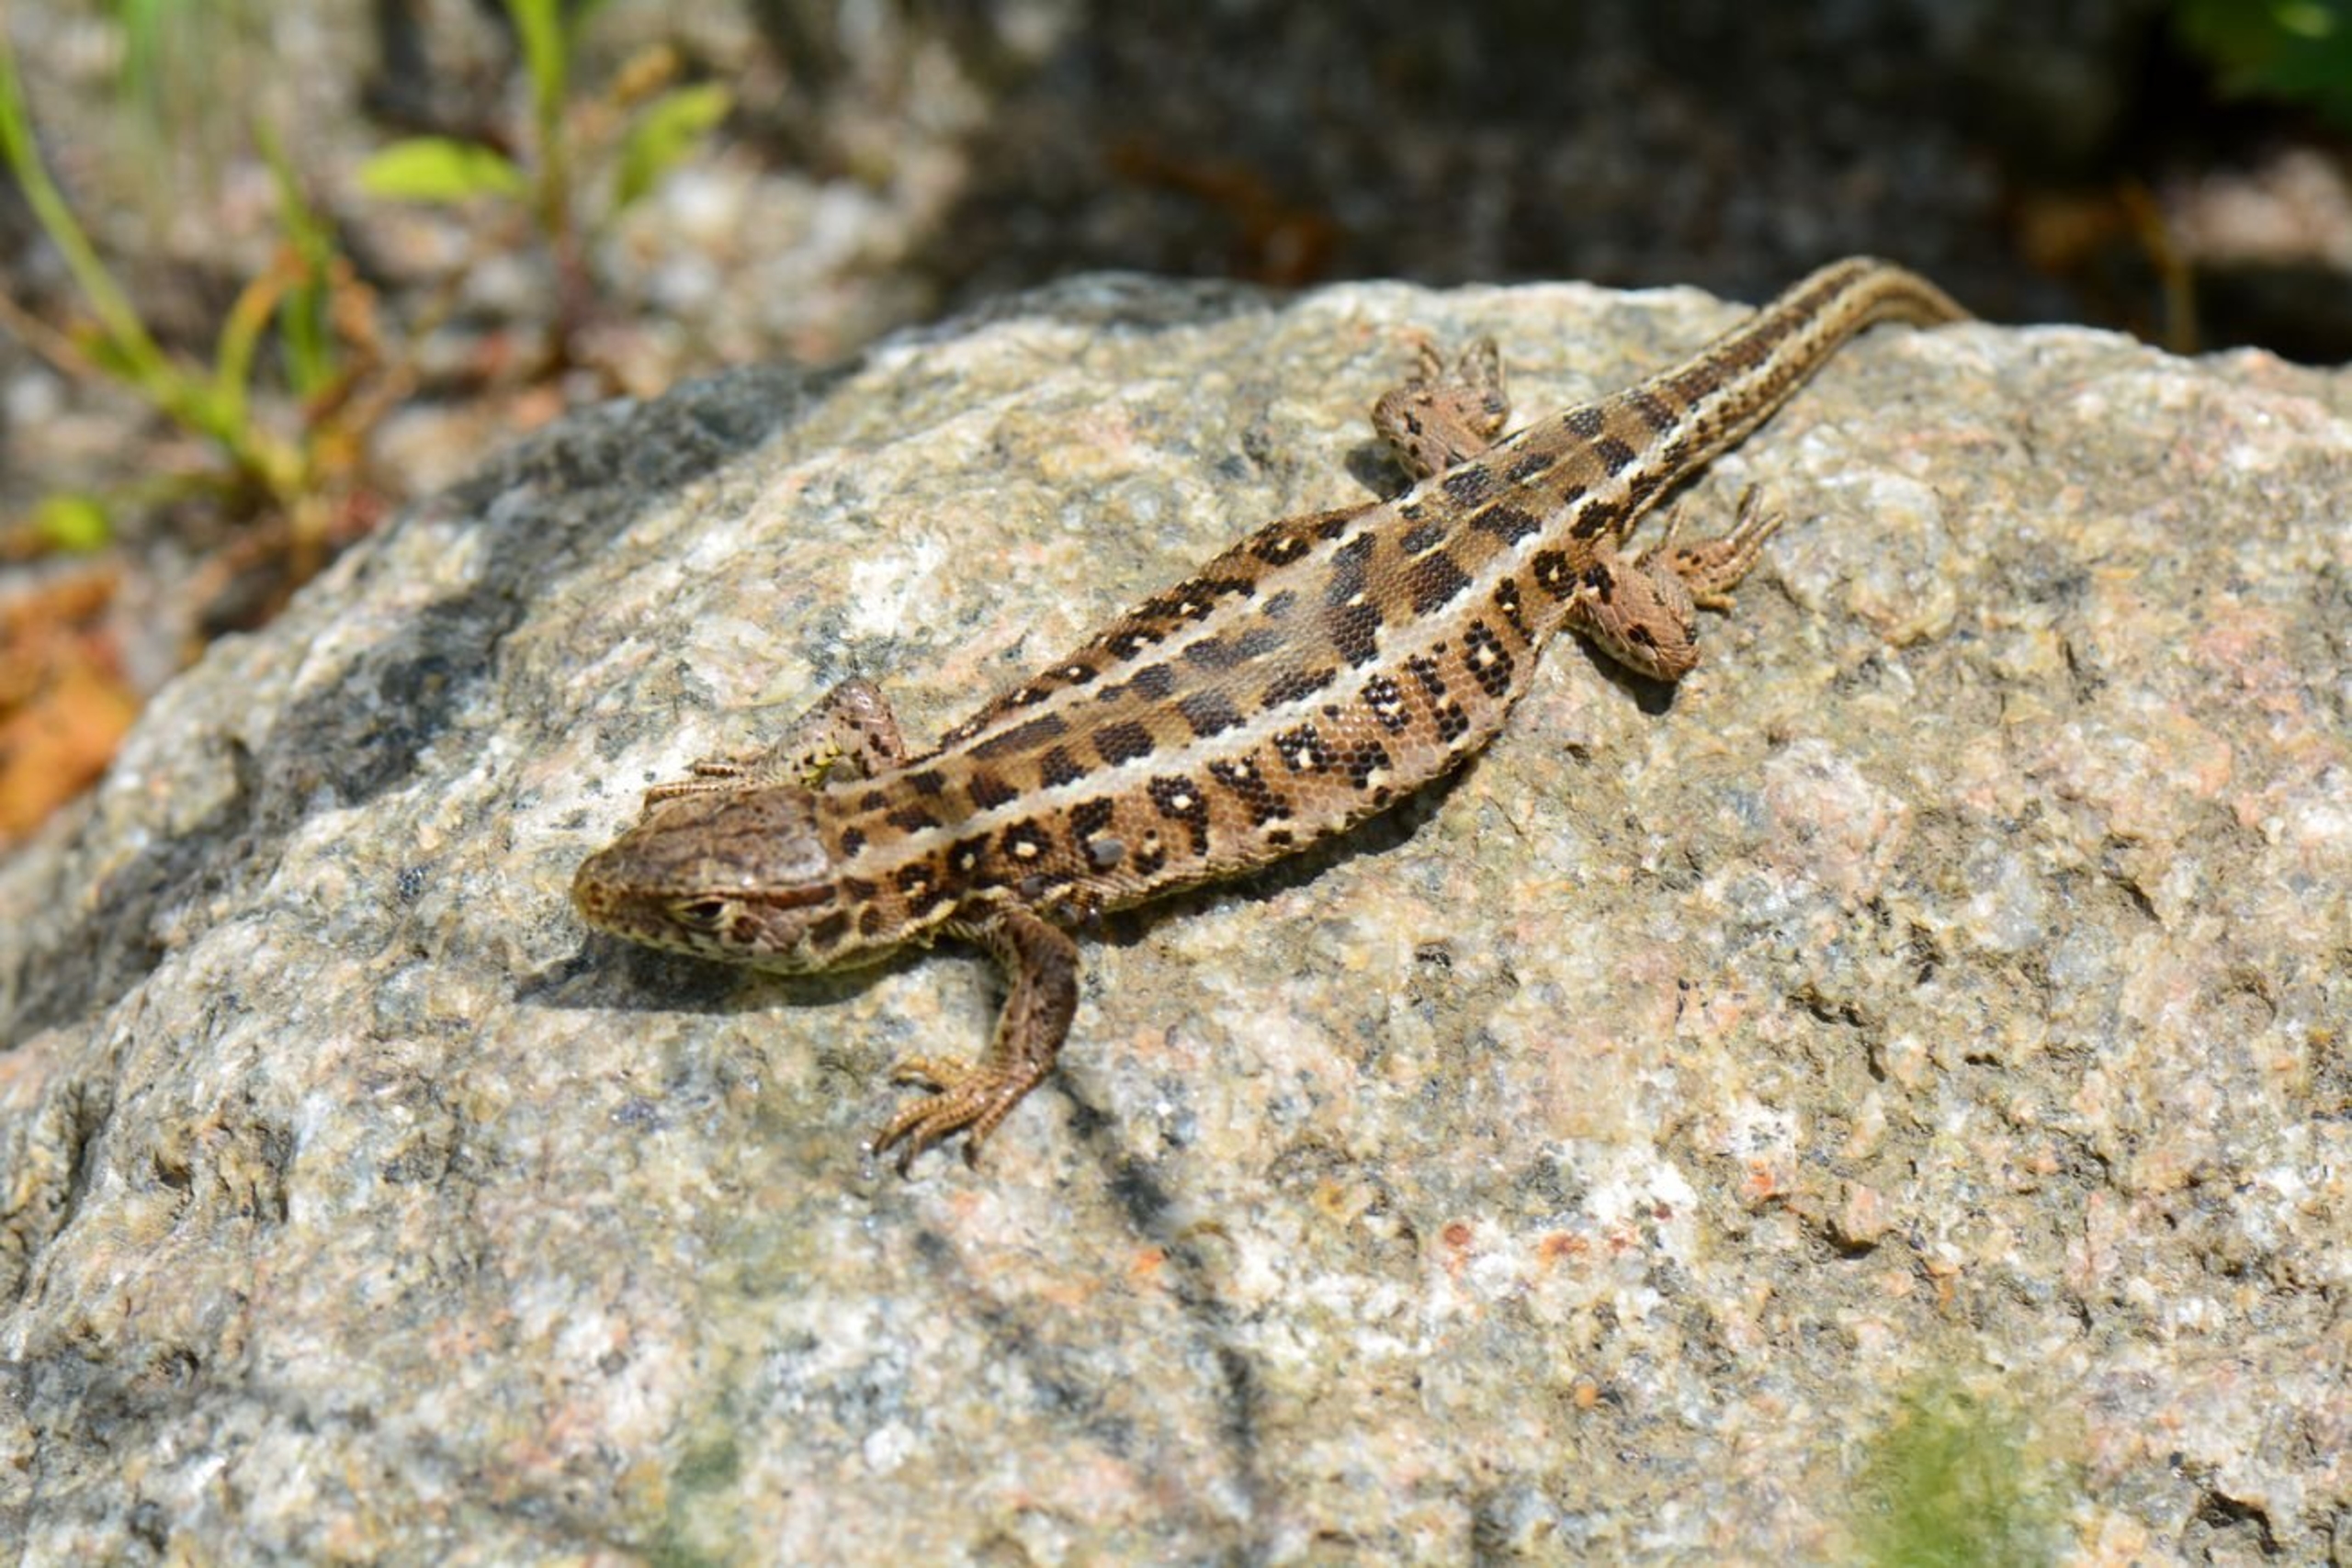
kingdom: Animalia
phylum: Chordata
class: Squamata
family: Lacertidae
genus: Lacerta
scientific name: Lacerta agilis
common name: Markfirben
